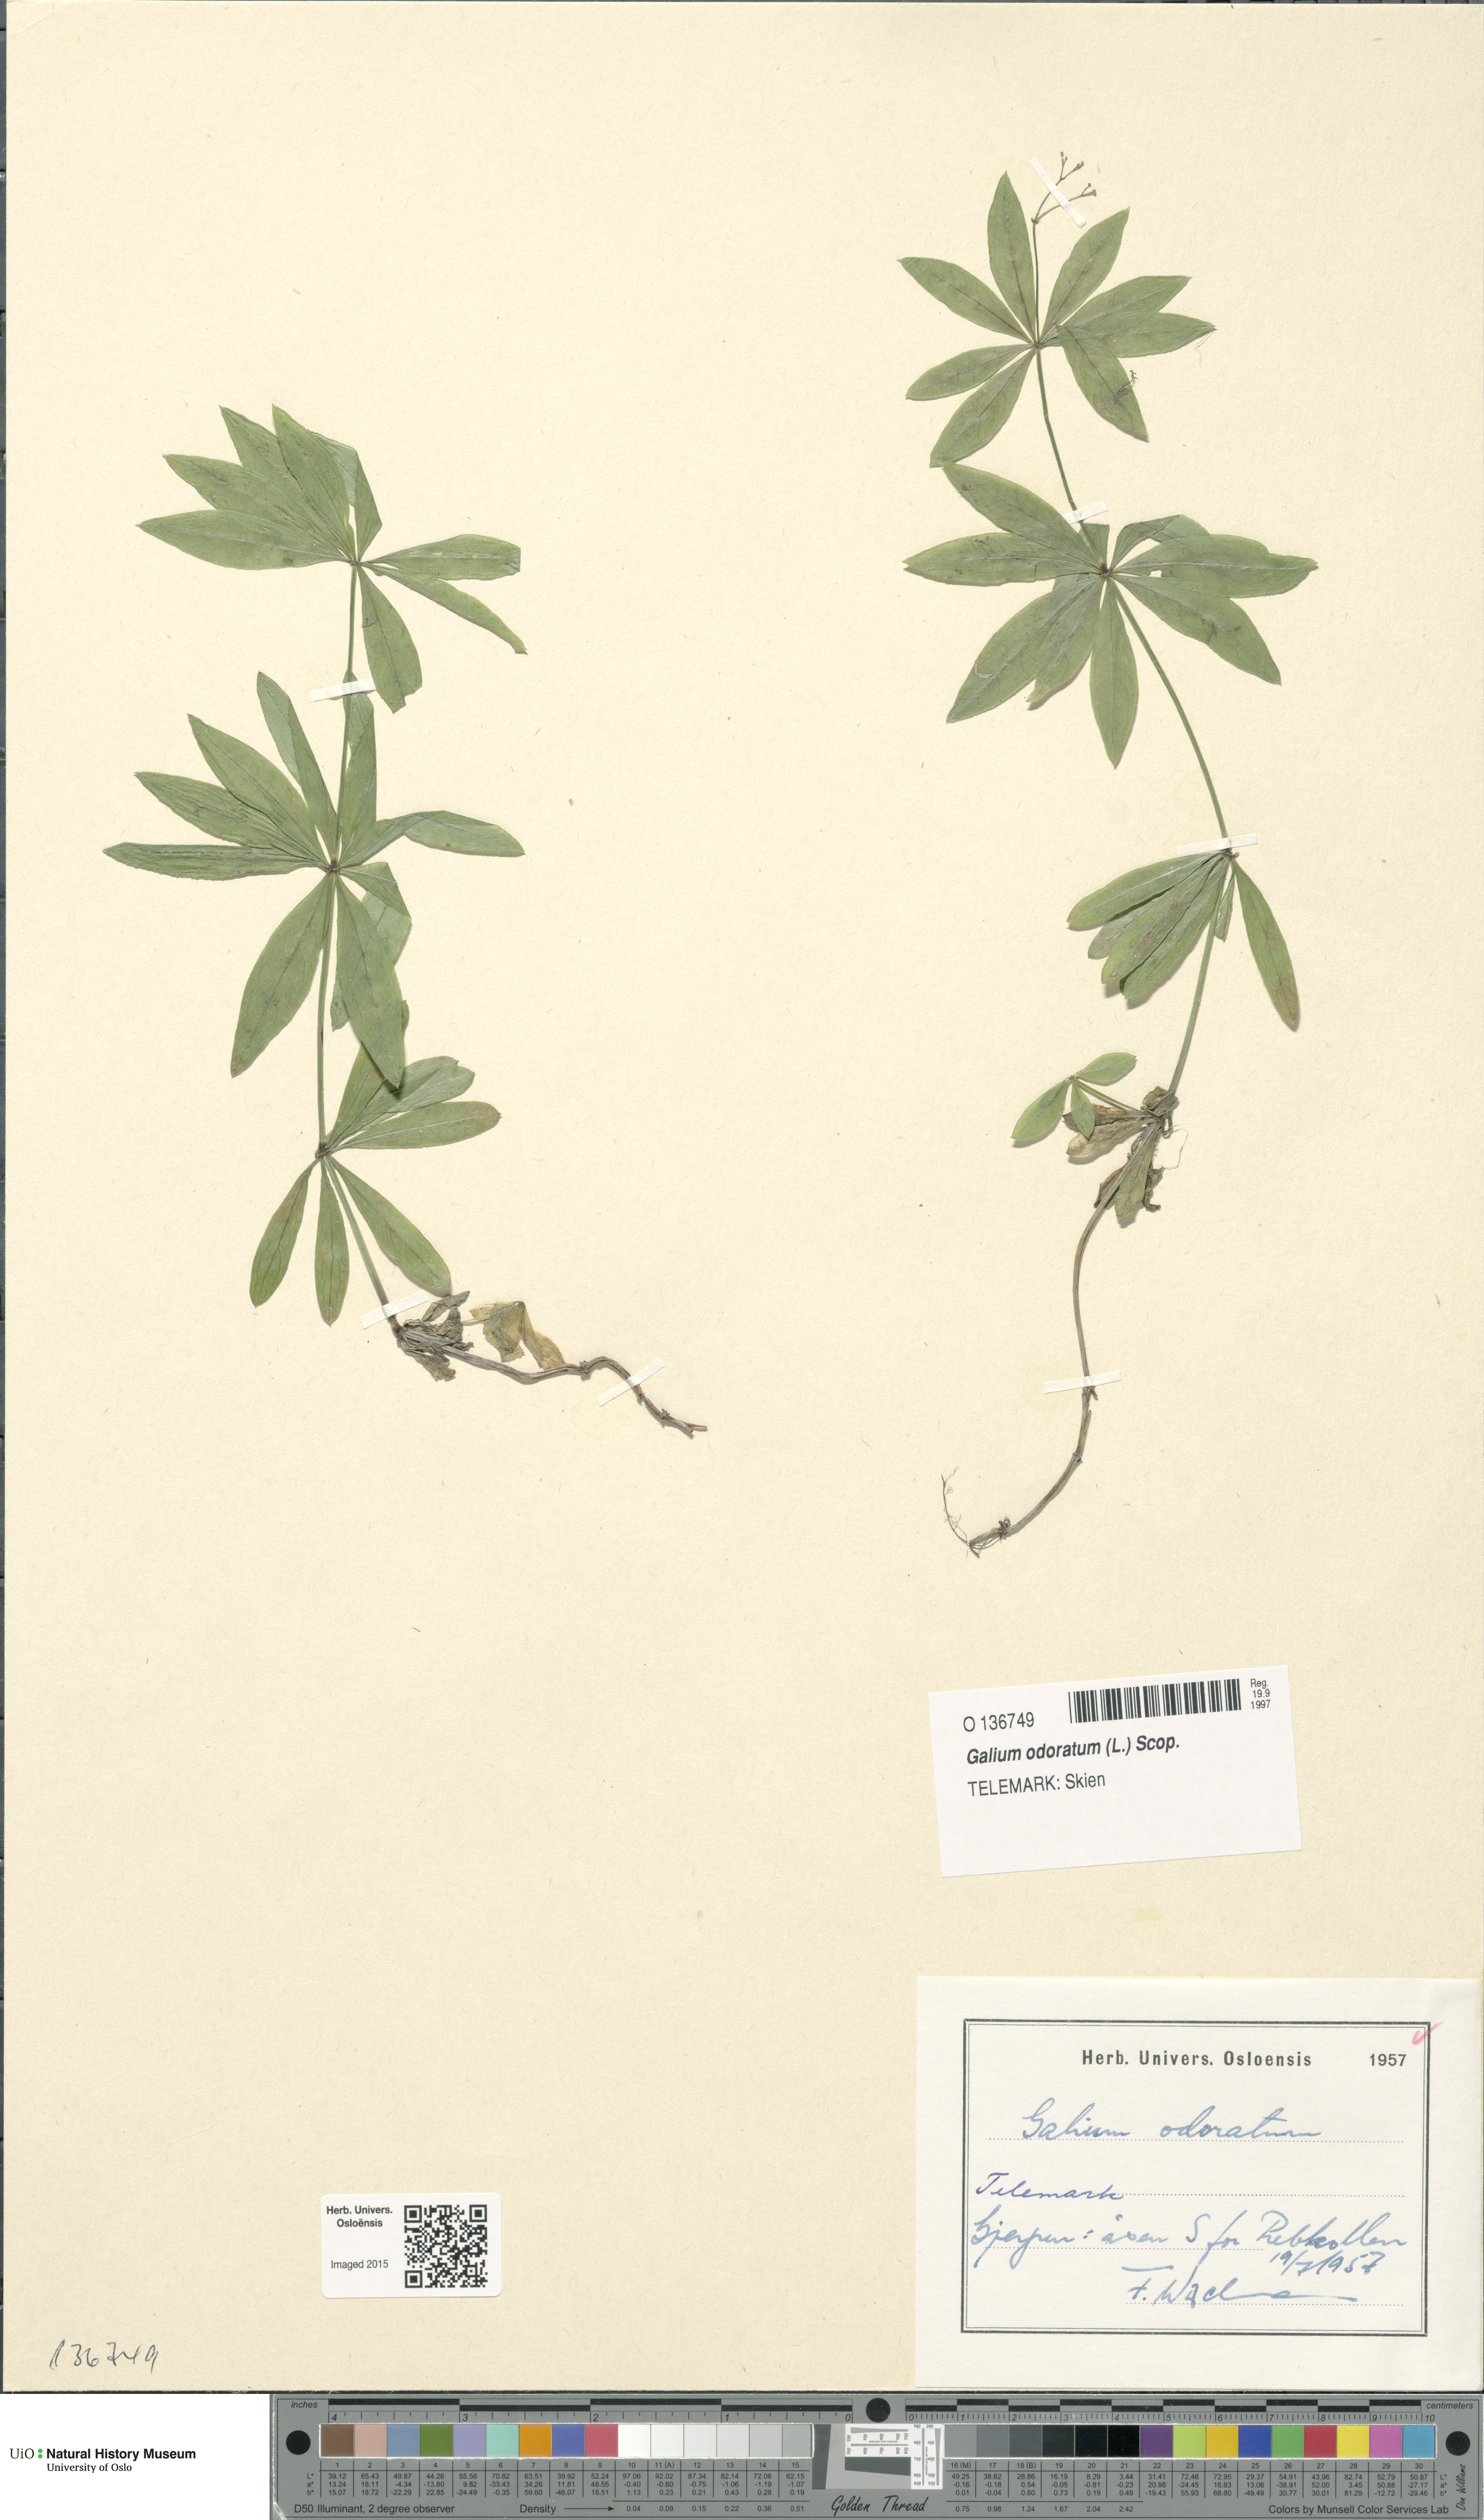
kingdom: Plantae
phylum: Tracheophyta
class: Magnoliopsida
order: Gentianales
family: Rubiaceae
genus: Galium
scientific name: Galium odoratum
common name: Sweet woodruff
